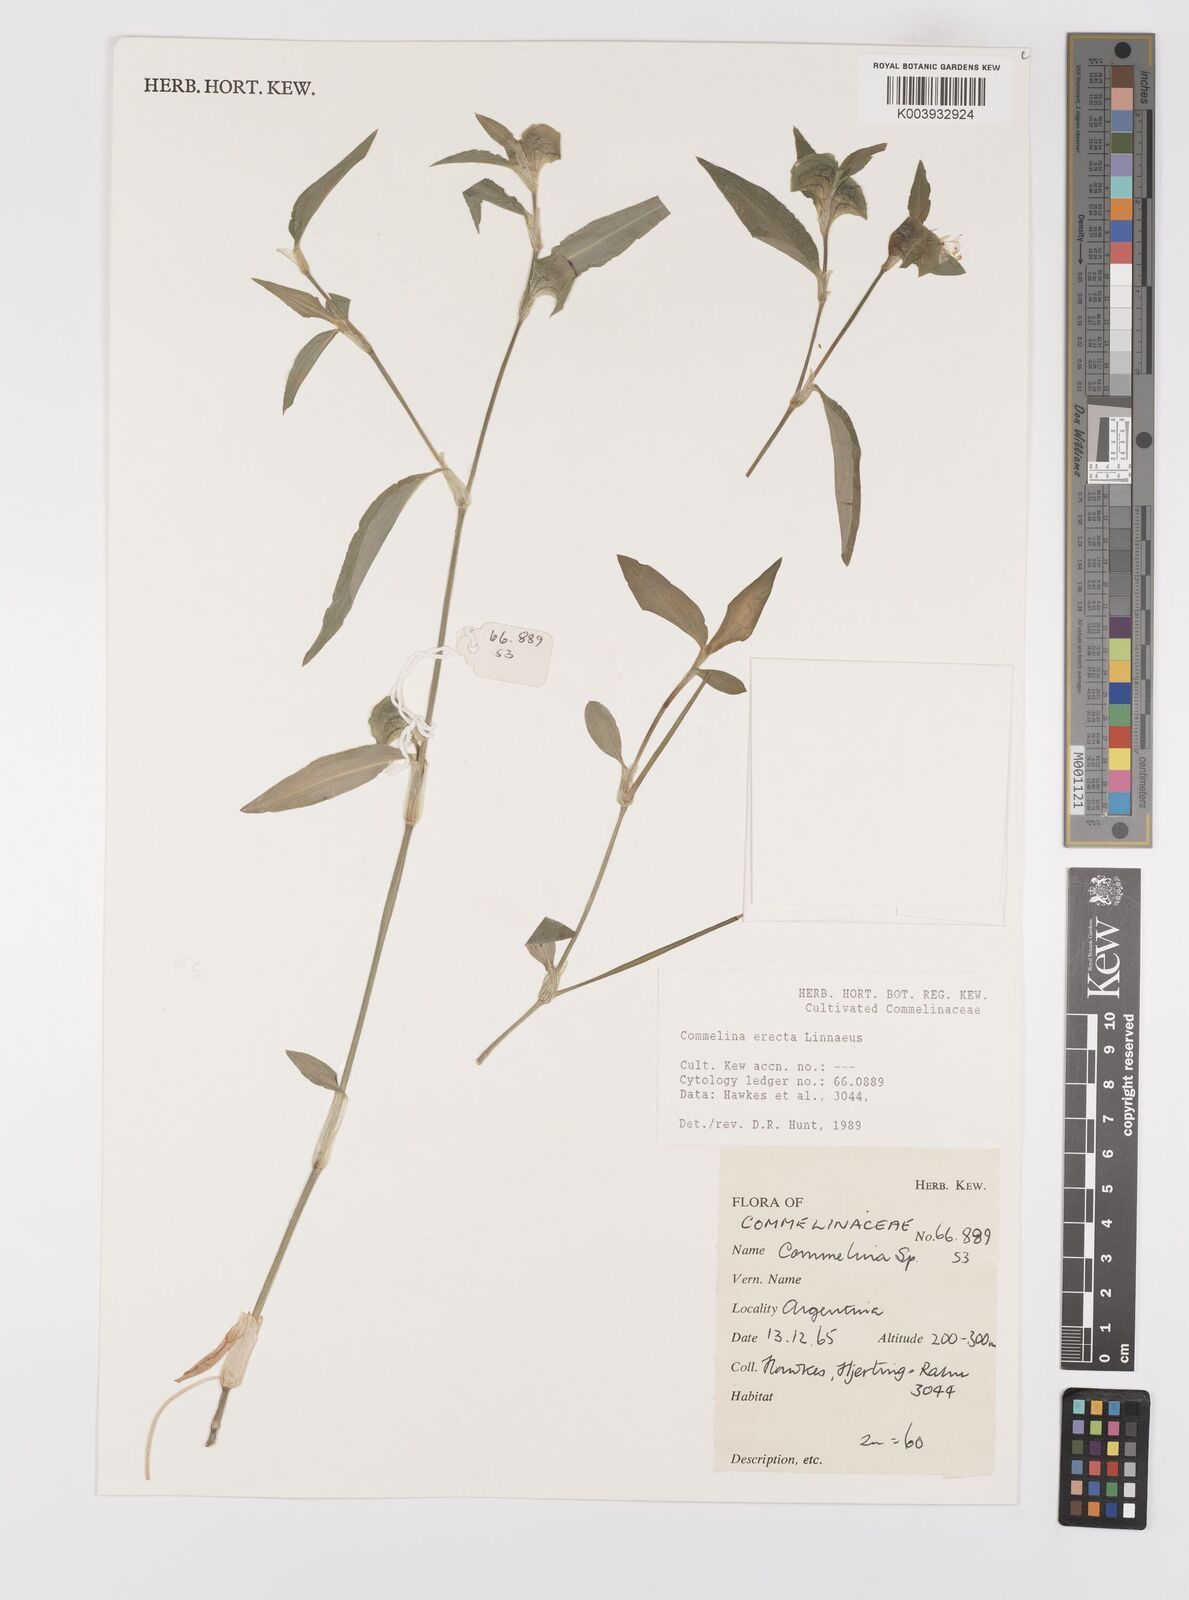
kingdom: Plantae
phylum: Tracheophyta
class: Liliopsida
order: Commelinales
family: Commelinaceae
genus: Commelina
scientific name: Commelina erecta
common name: Blousel blommetjie
